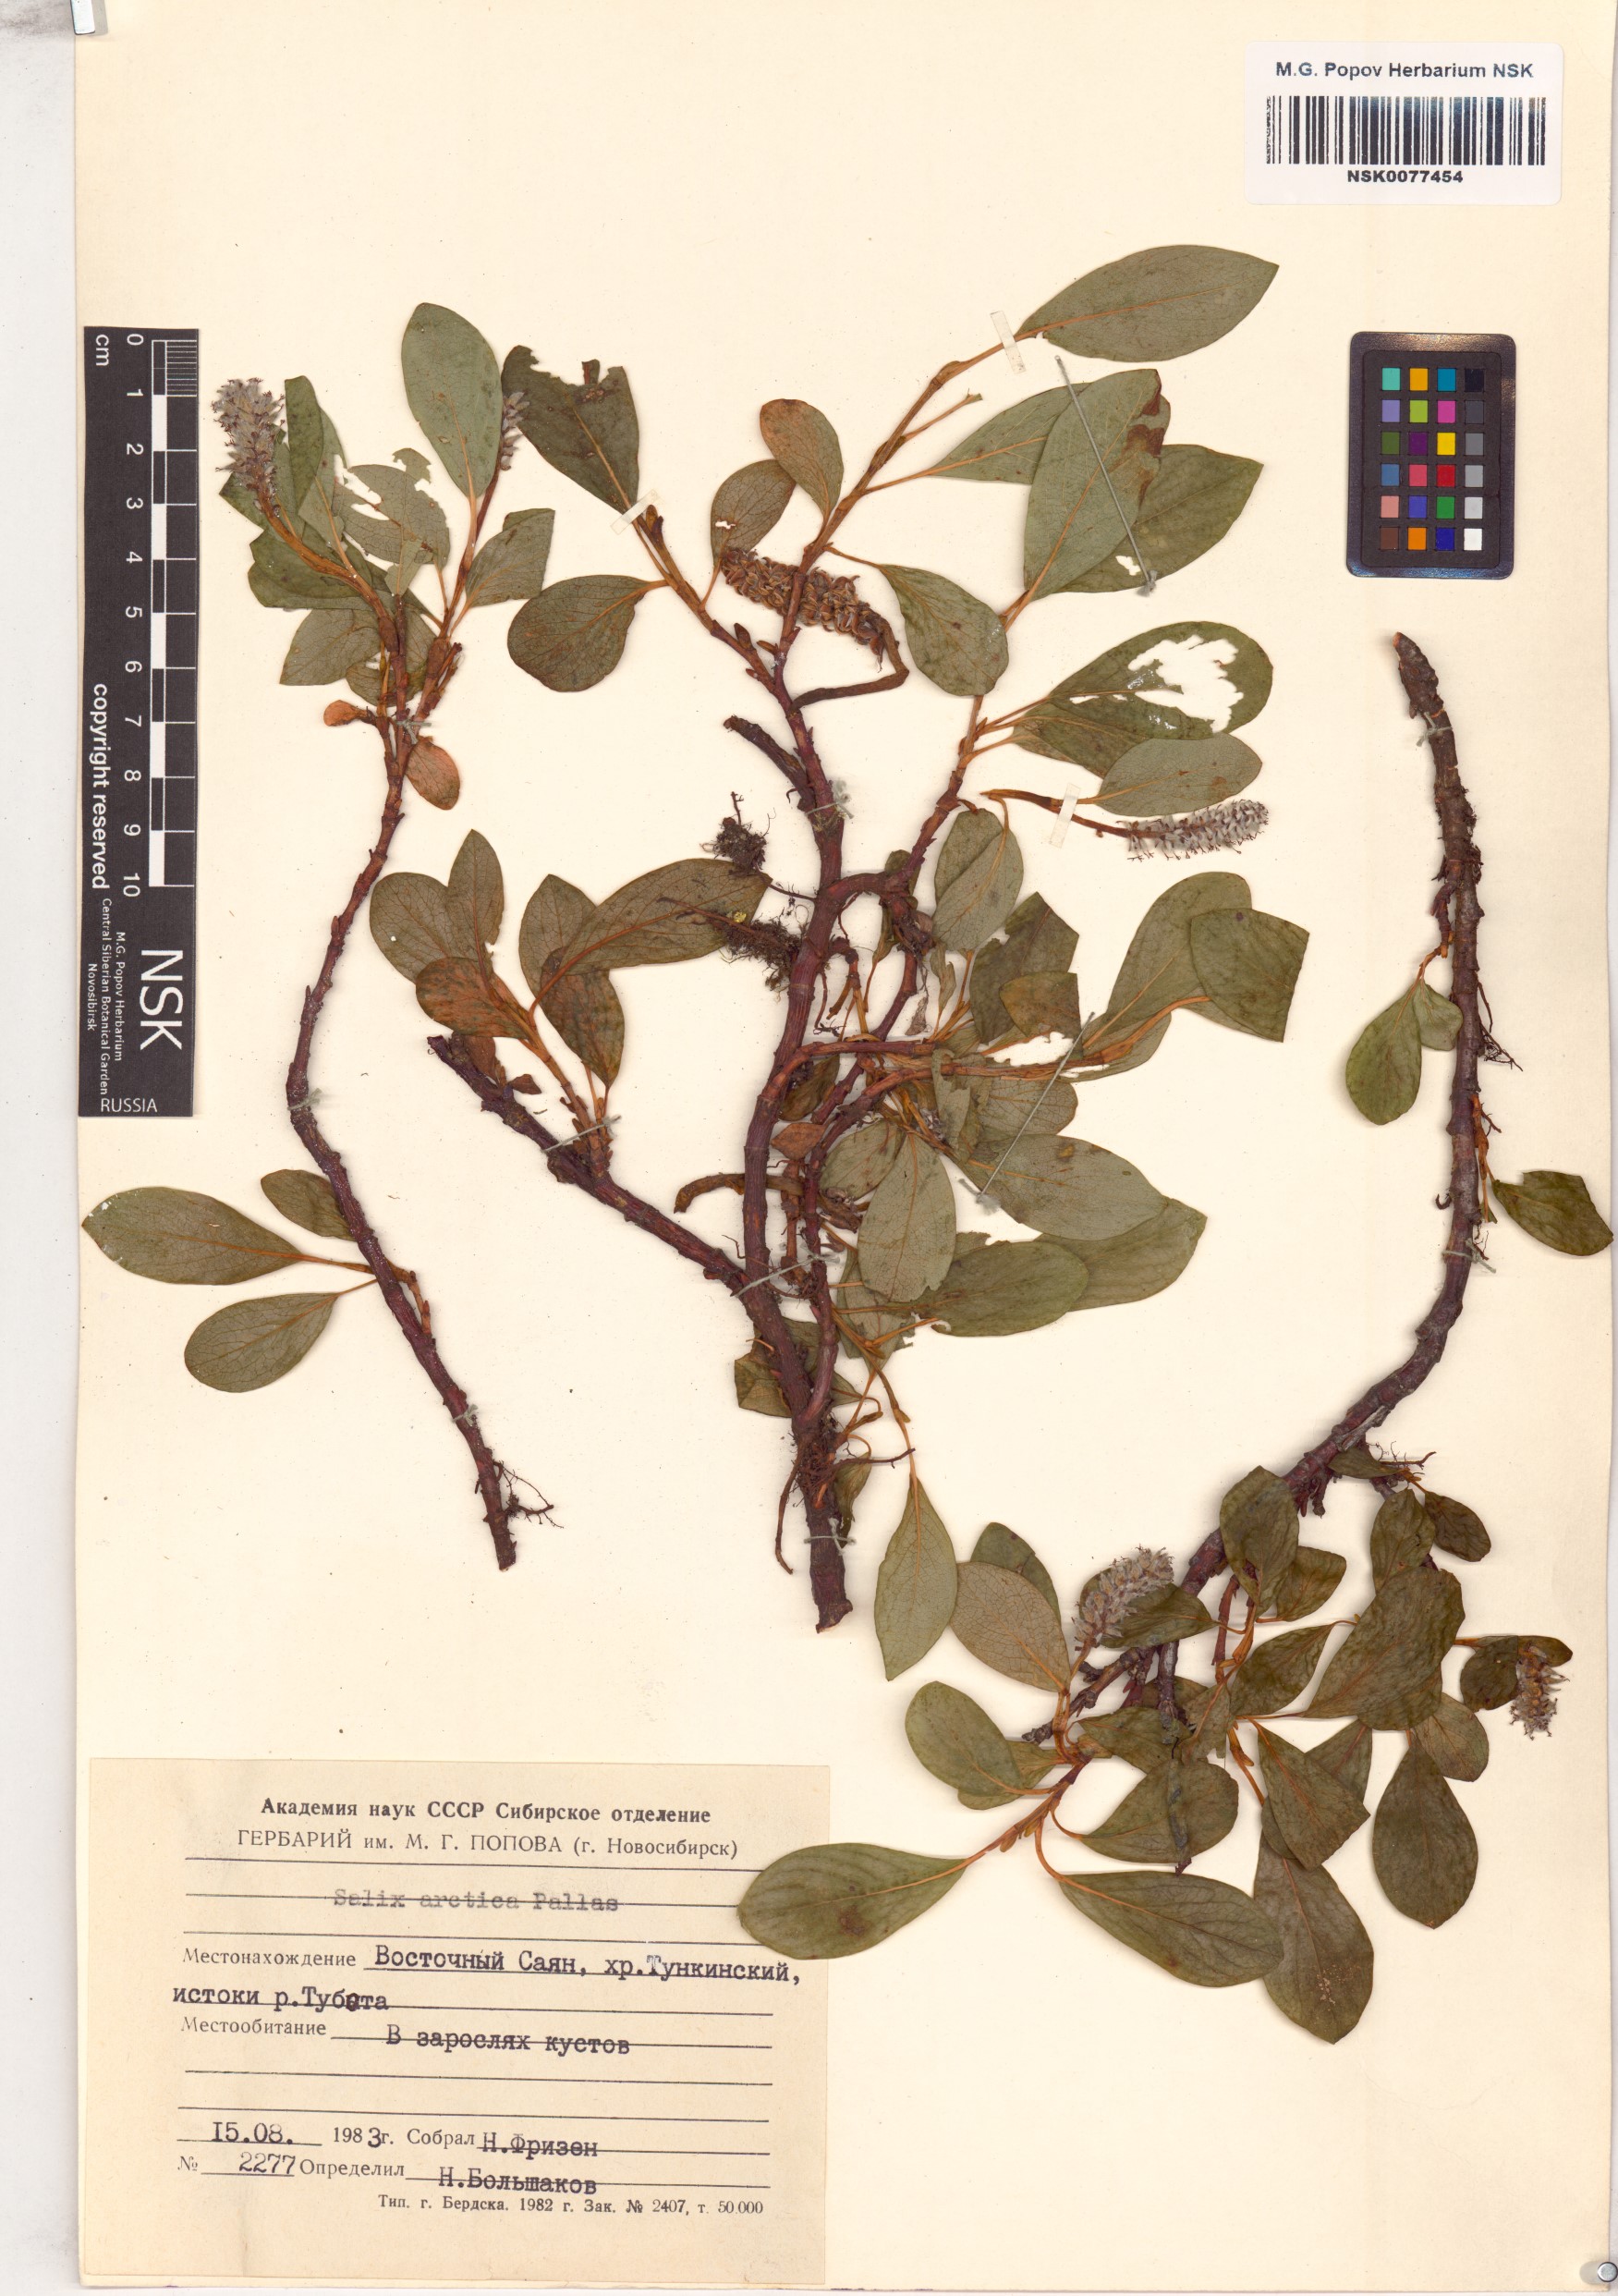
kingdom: Plantae
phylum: Tracheophyta
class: Magnoliopsida
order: Malpighiales
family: Salicaceae
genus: Salix
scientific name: Salix arctica
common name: Arctic willow
